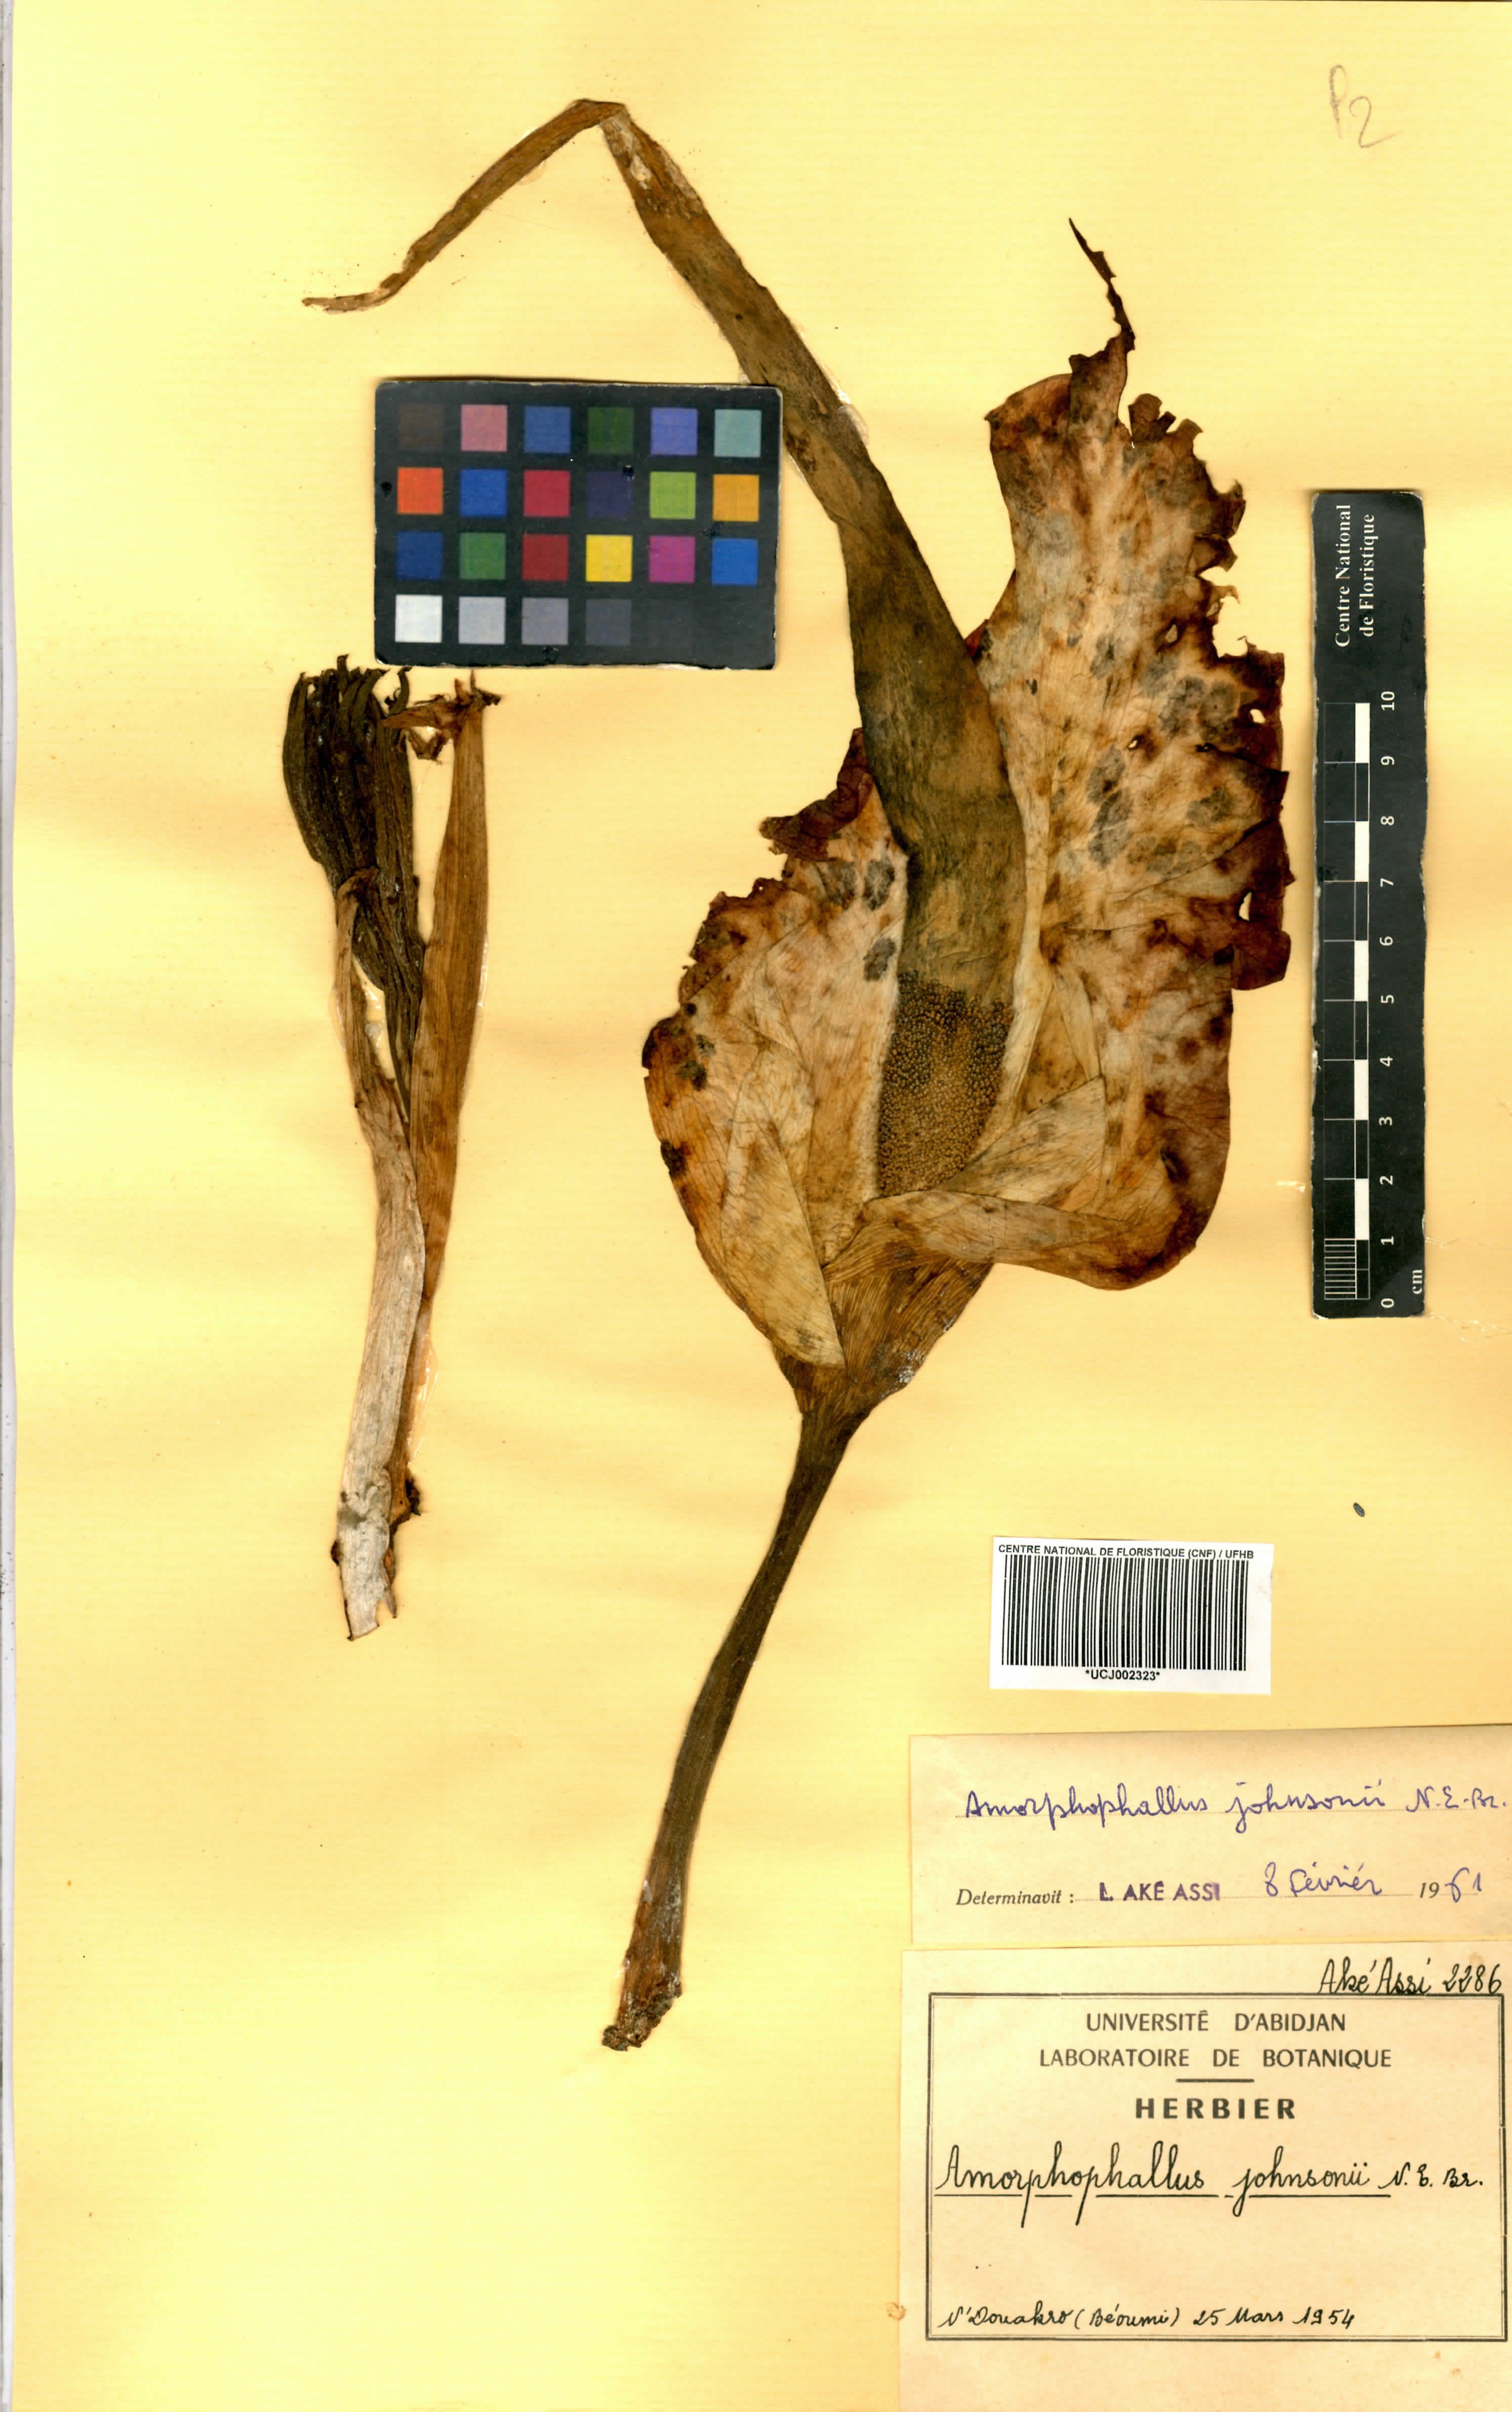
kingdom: Plantae
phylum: Tracheophyta
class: Liliopsida
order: Alismatales
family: Araceae
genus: Amorphophallus
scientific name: Amorphophallus johnsonii
